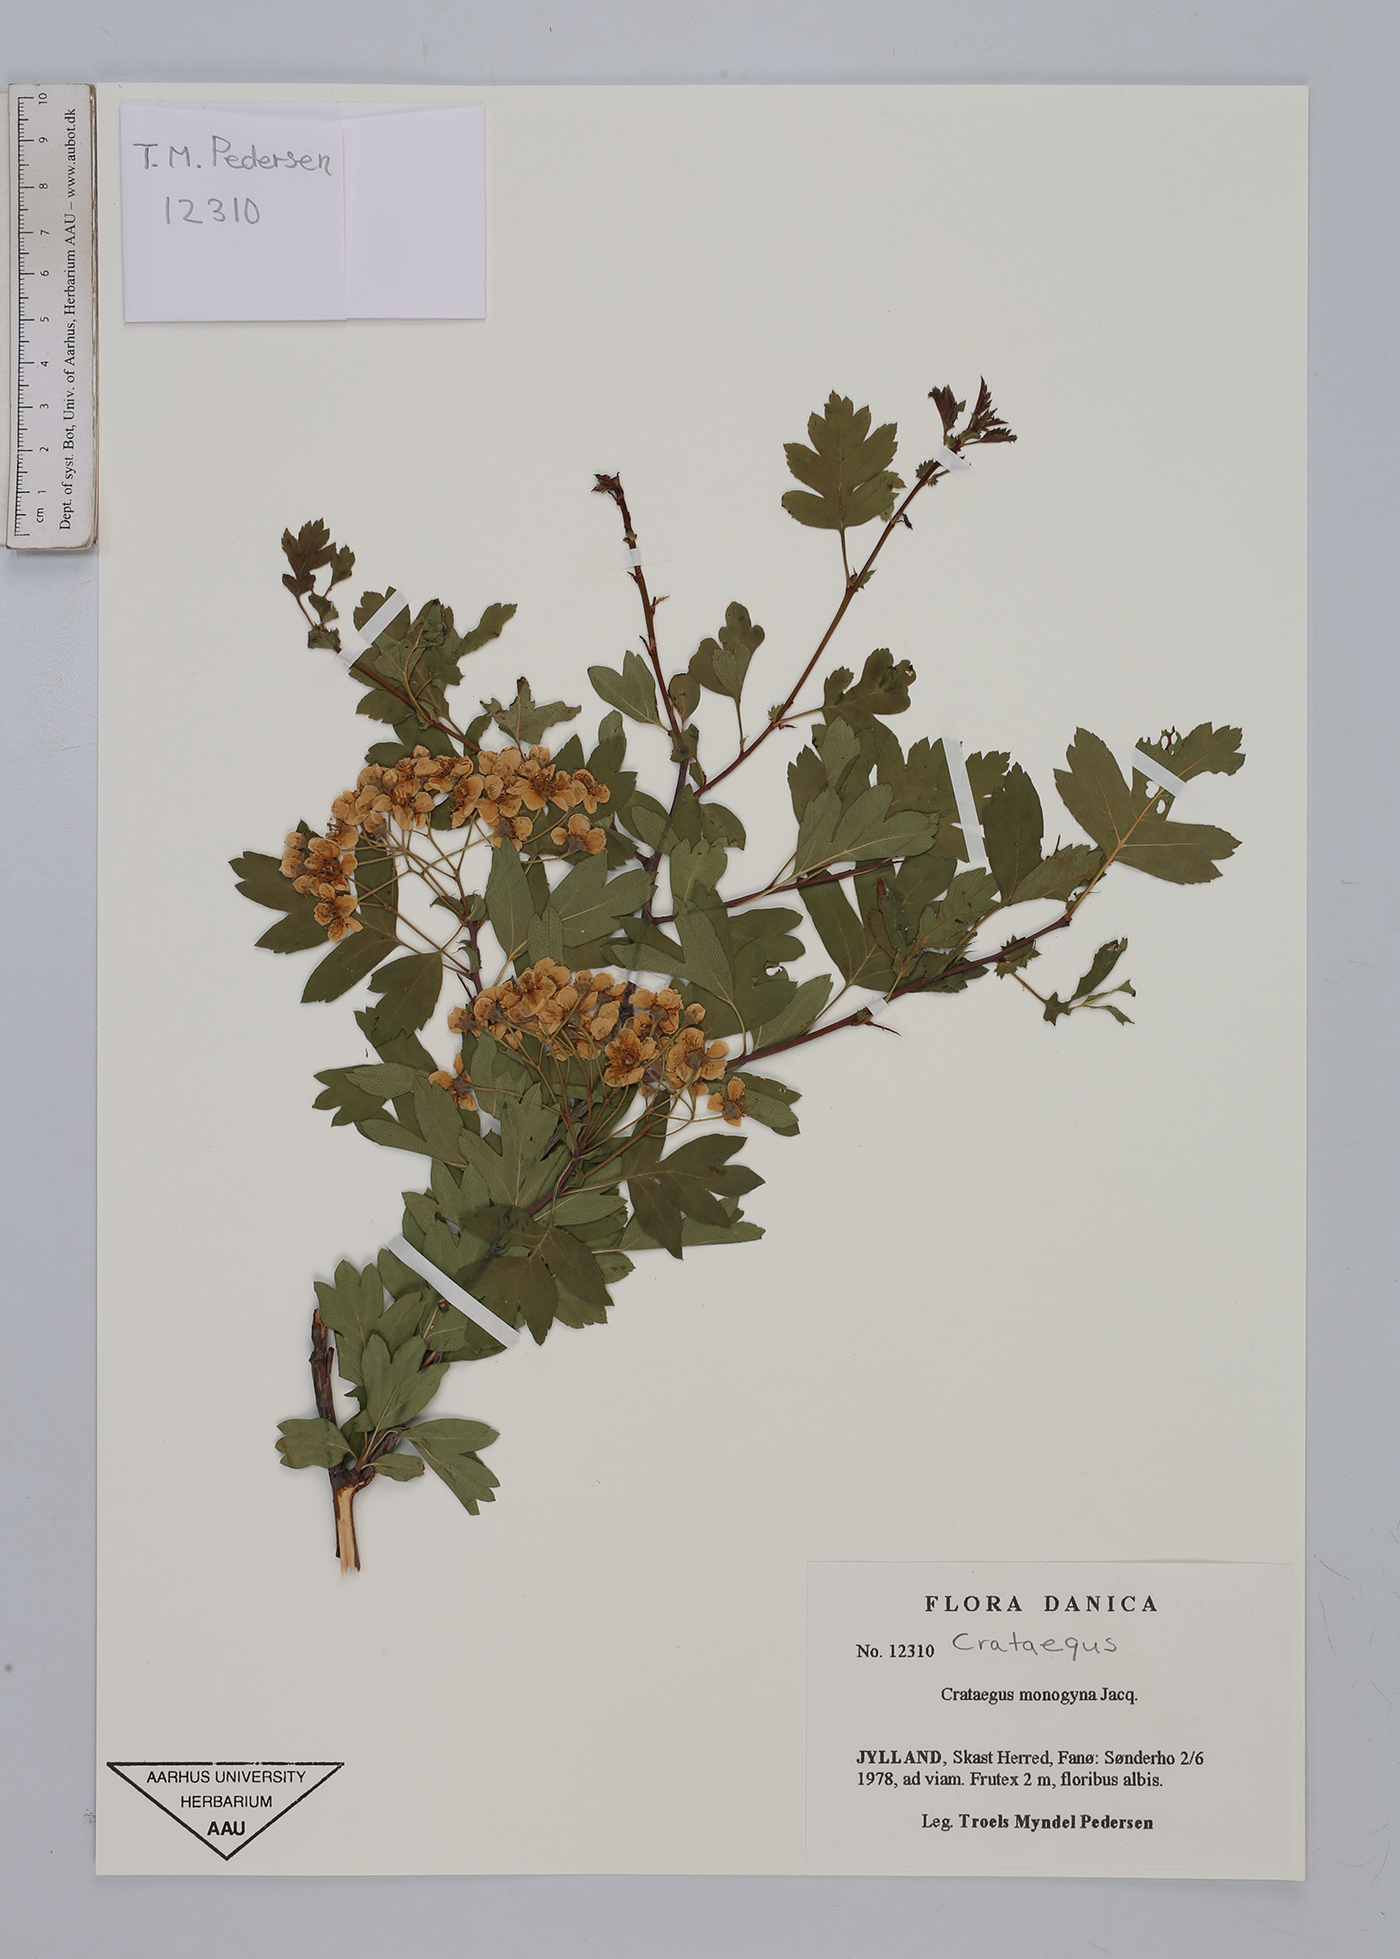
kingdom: Plantae
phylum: Tracheophyta
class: Magnoliopsida
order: Rosales
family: Rosaceae
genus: Crataegus
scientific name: Crataegus monogyna
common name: Hawthorn
